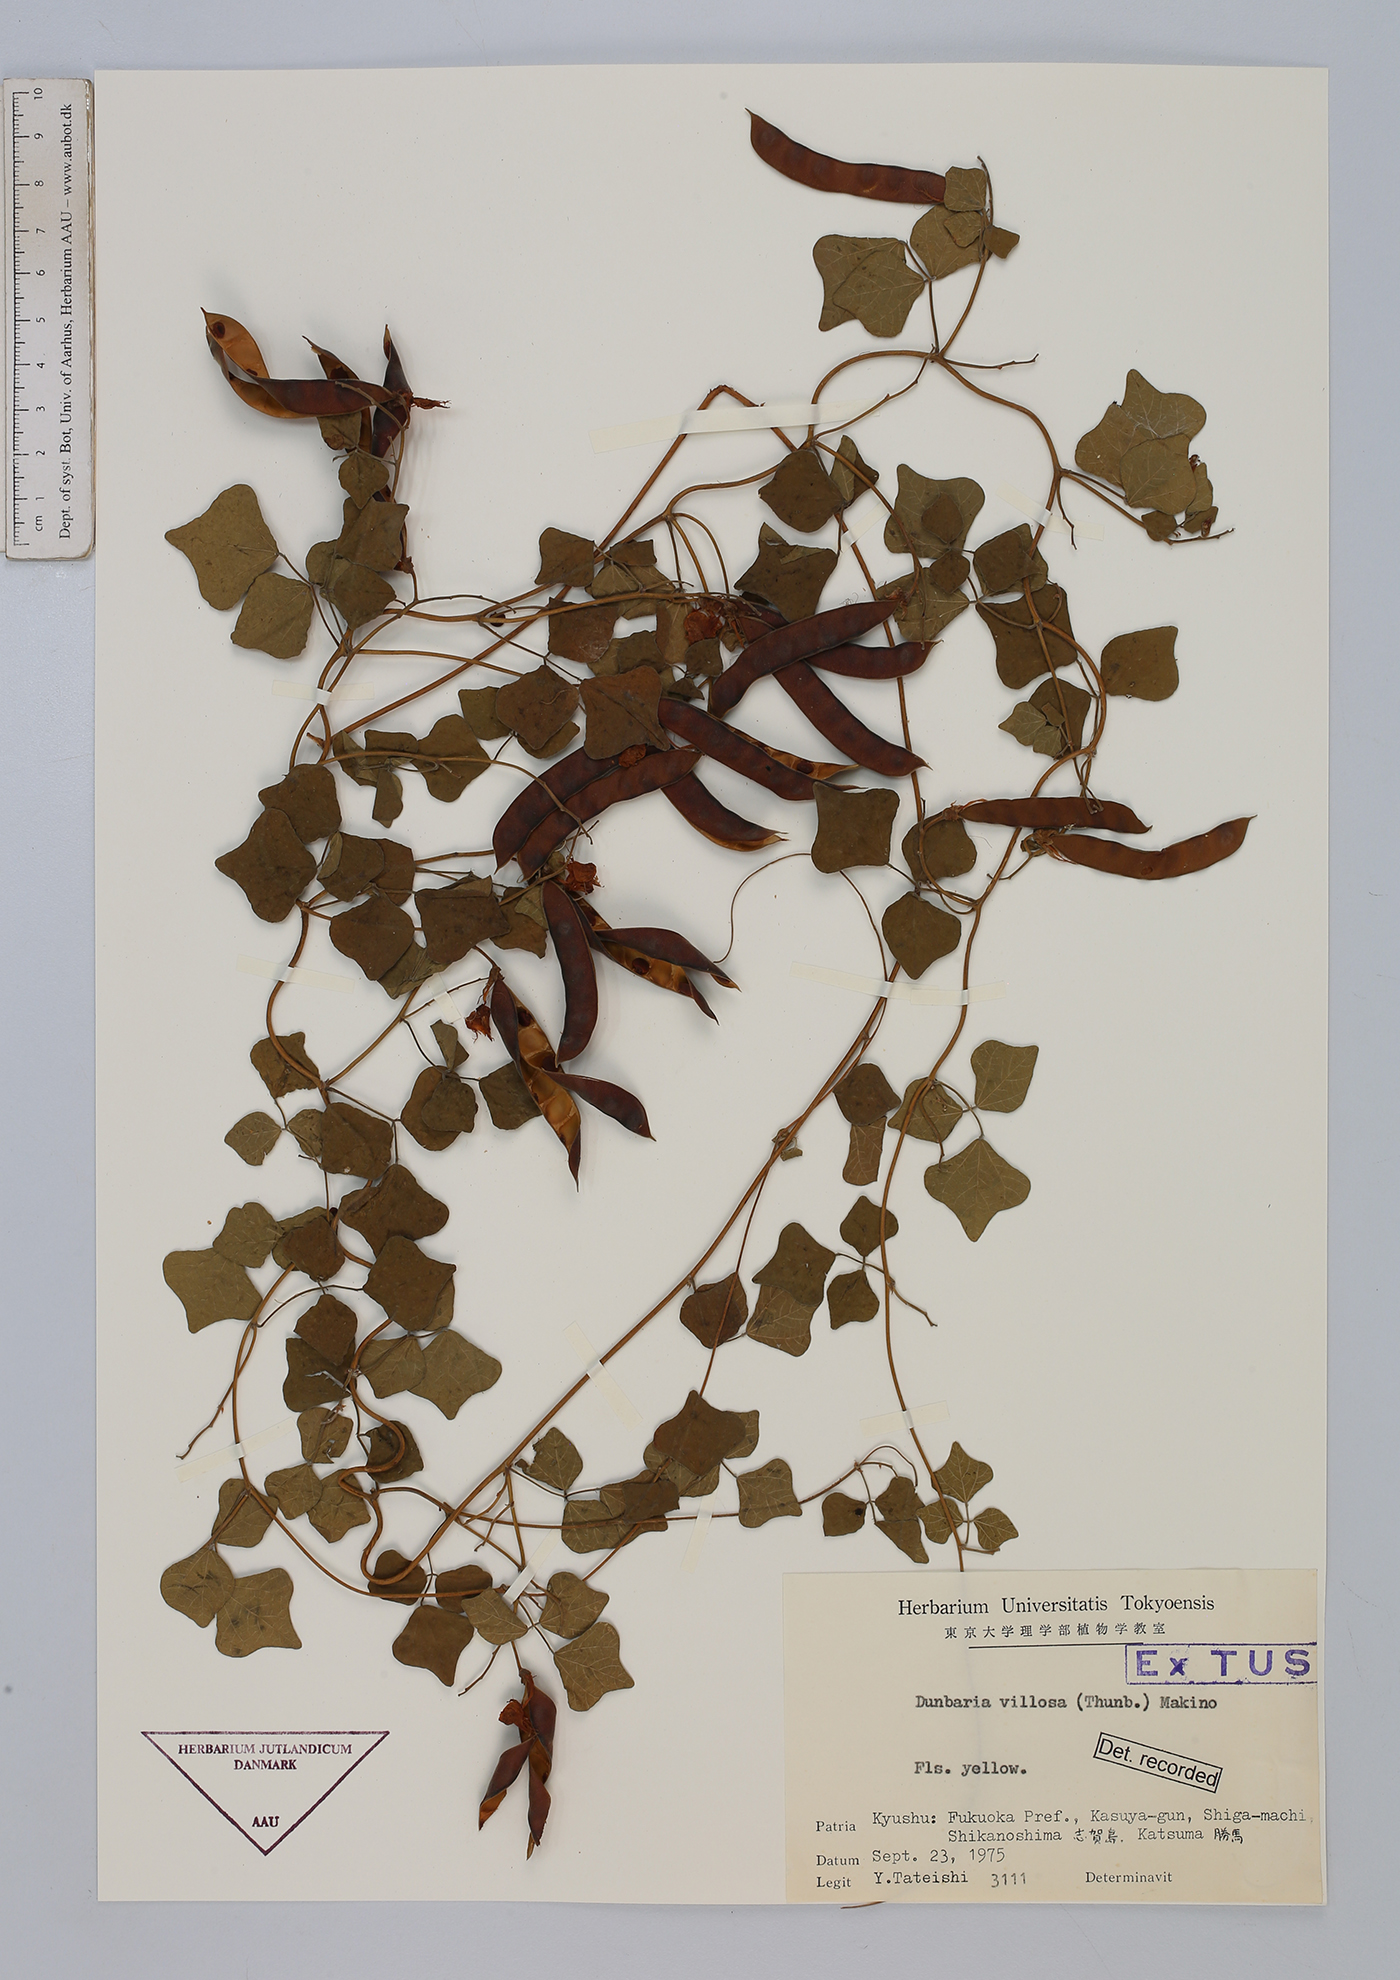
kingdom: Plantae
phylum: Tracheophyta
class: Magnoliopsida
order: Fabales
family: Fabaceae
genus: Dunbaria
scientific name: Dunbaria villosa
